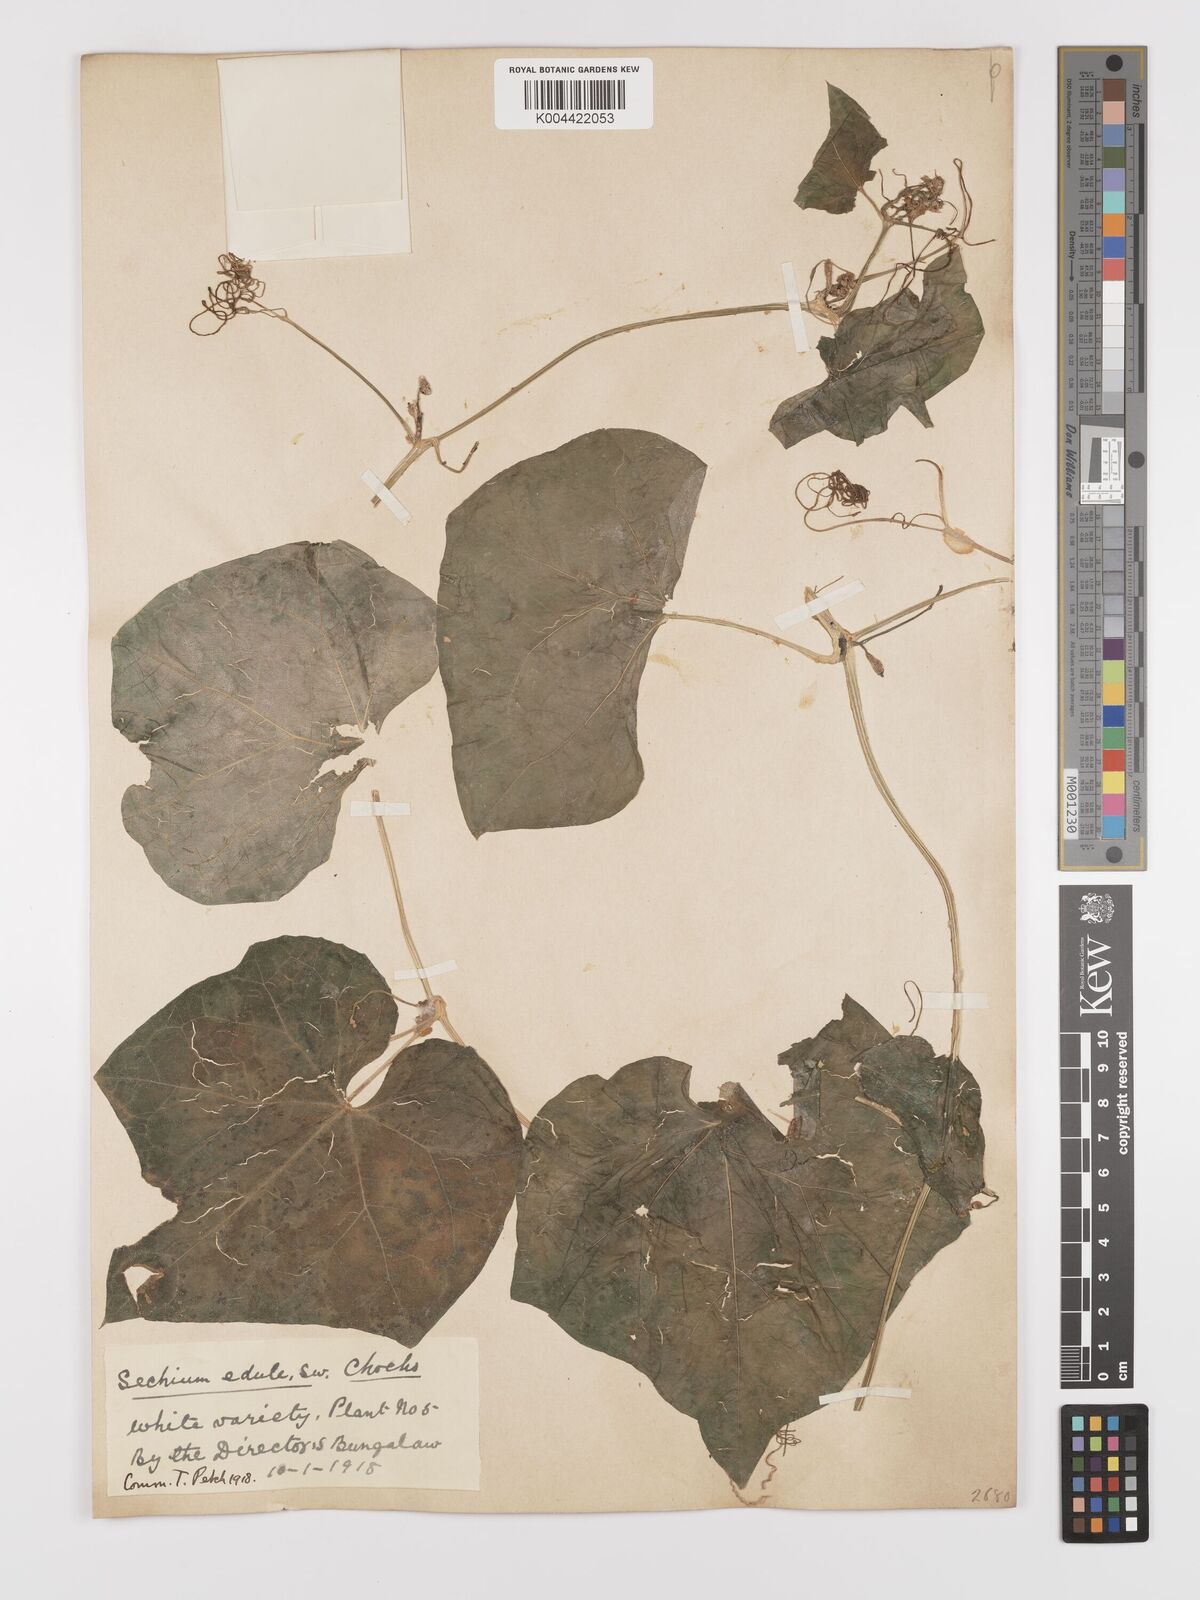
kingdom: Plantae
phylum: Tracheophyta
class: Magnoliopsida
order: Cucurbitales
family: Cucurbitaceae
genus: Sechium
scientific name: Sechium edule
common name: Chayote
